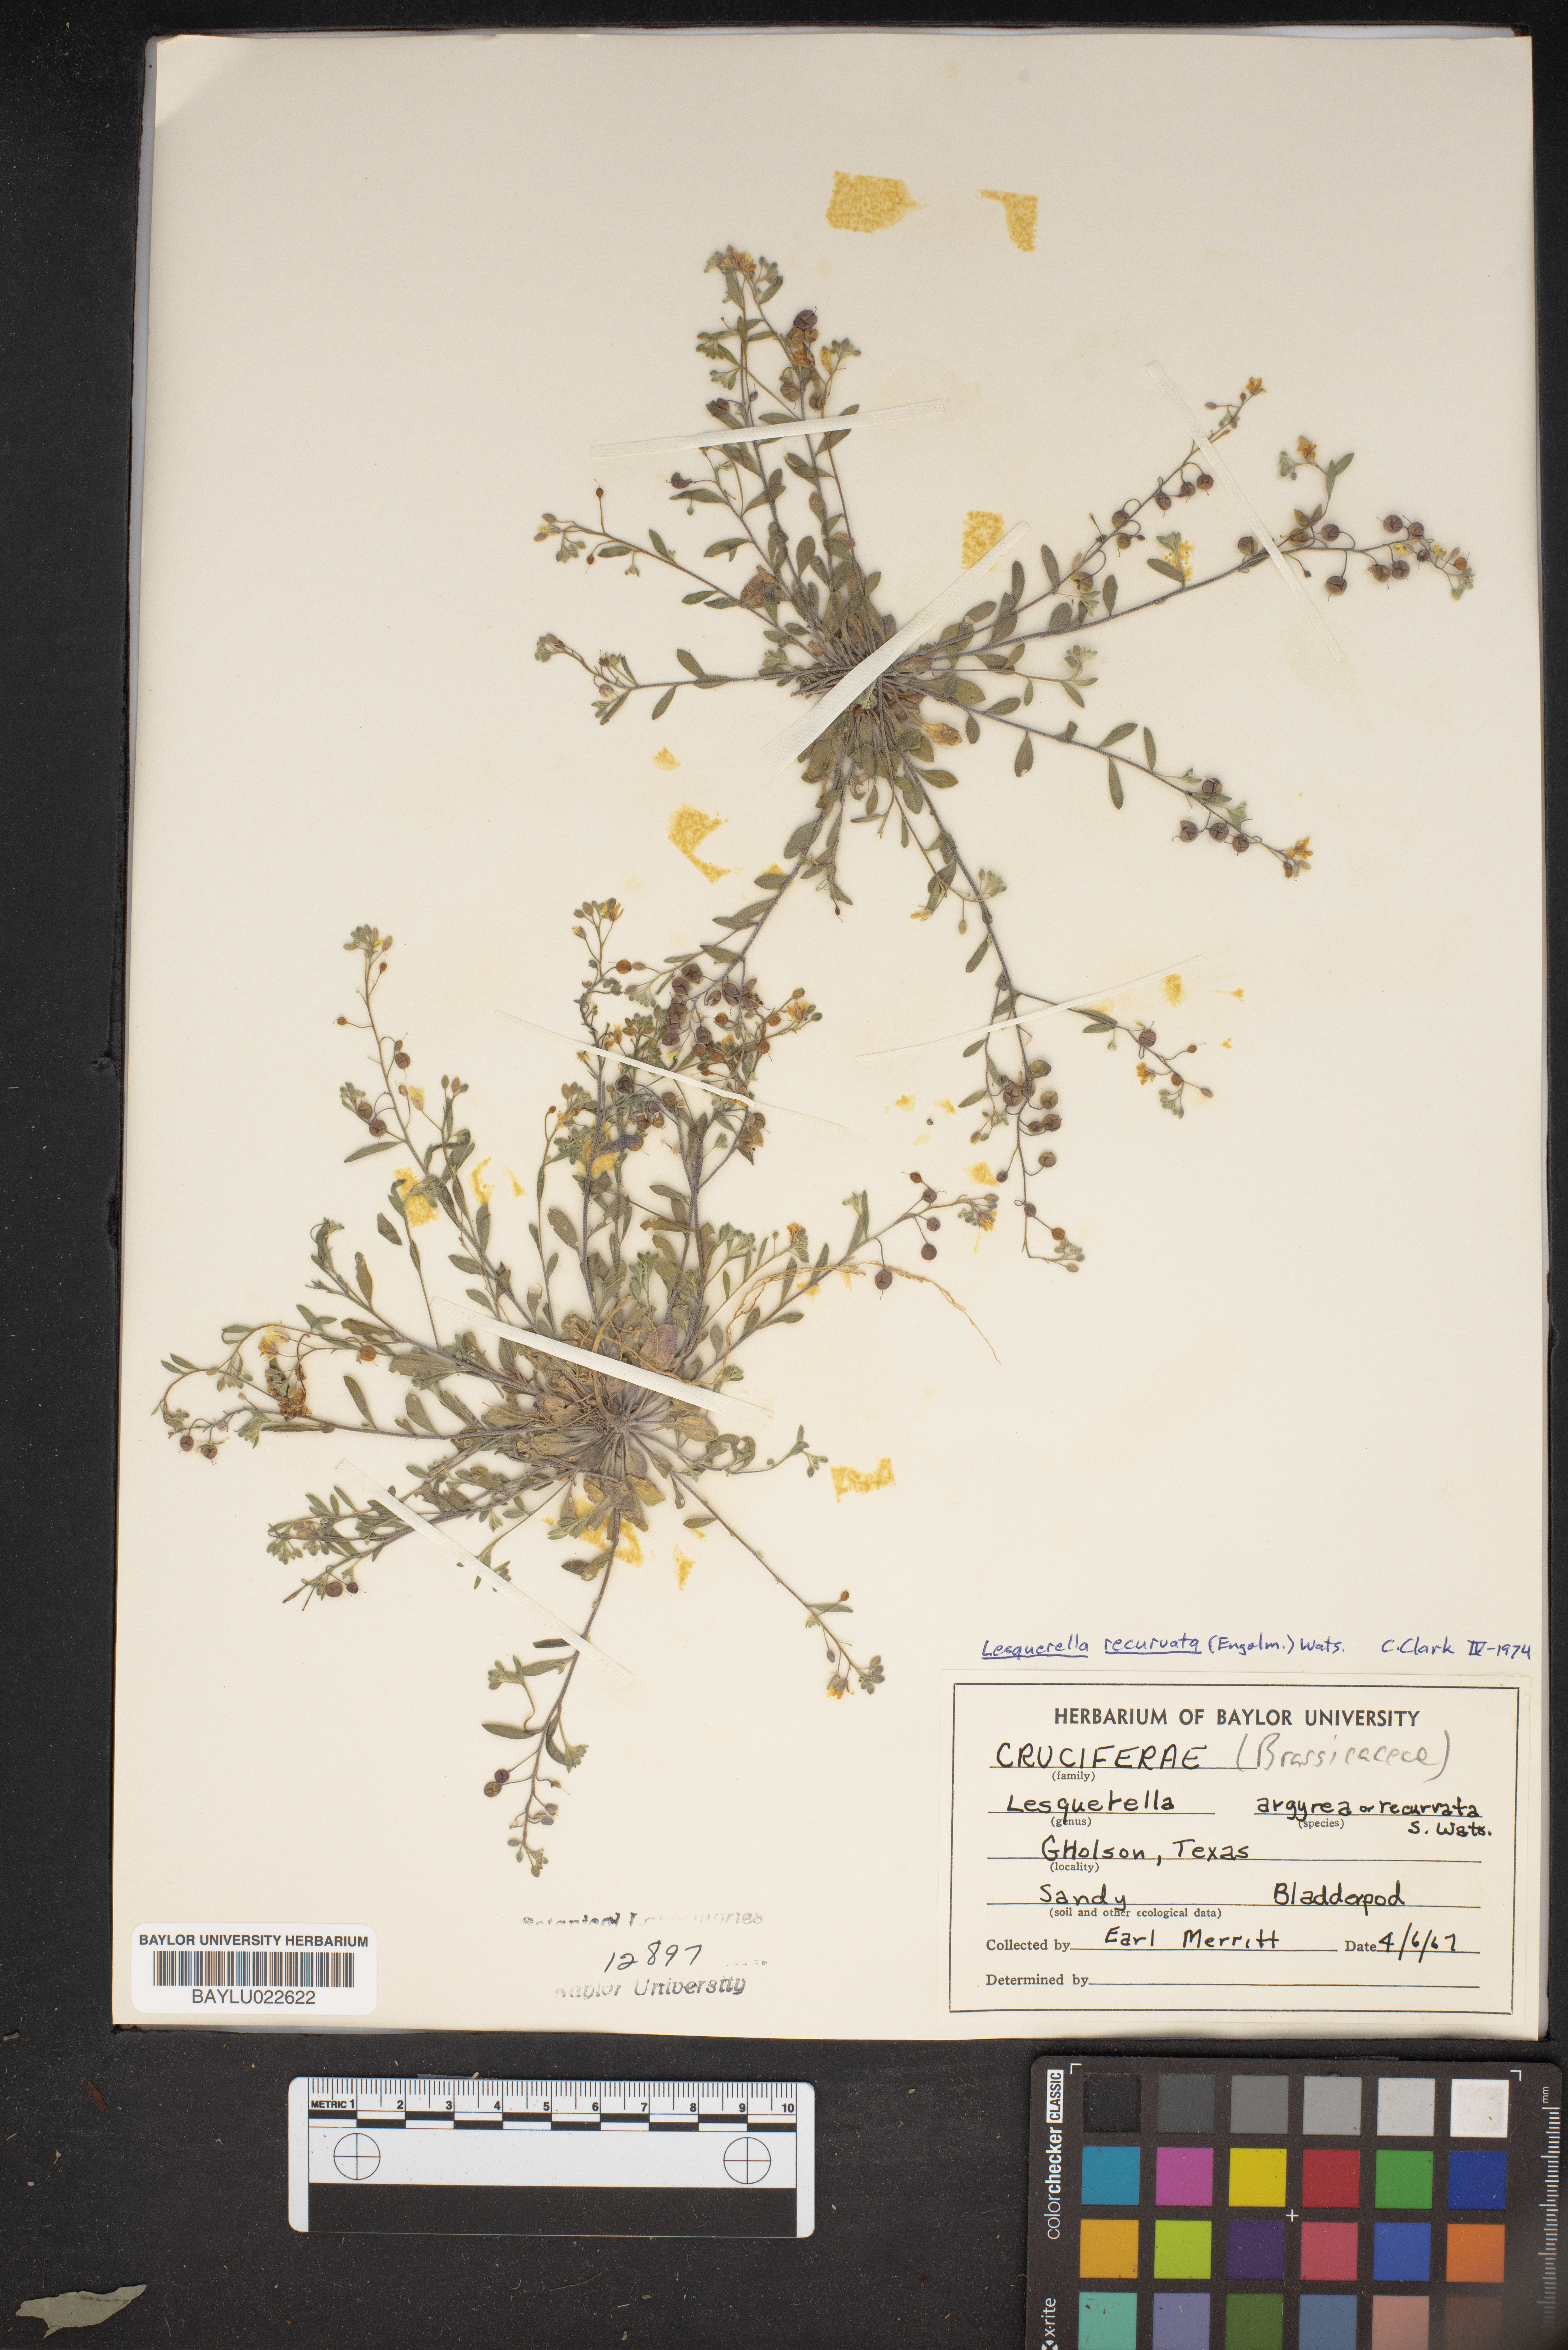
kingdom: Plantae
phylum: Tracheophyta
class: Magnoliopsida
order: Brassicales
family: Brassicaceae
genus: Physaria
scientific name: Physaria recurvata
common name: Gaslight bladderpod
